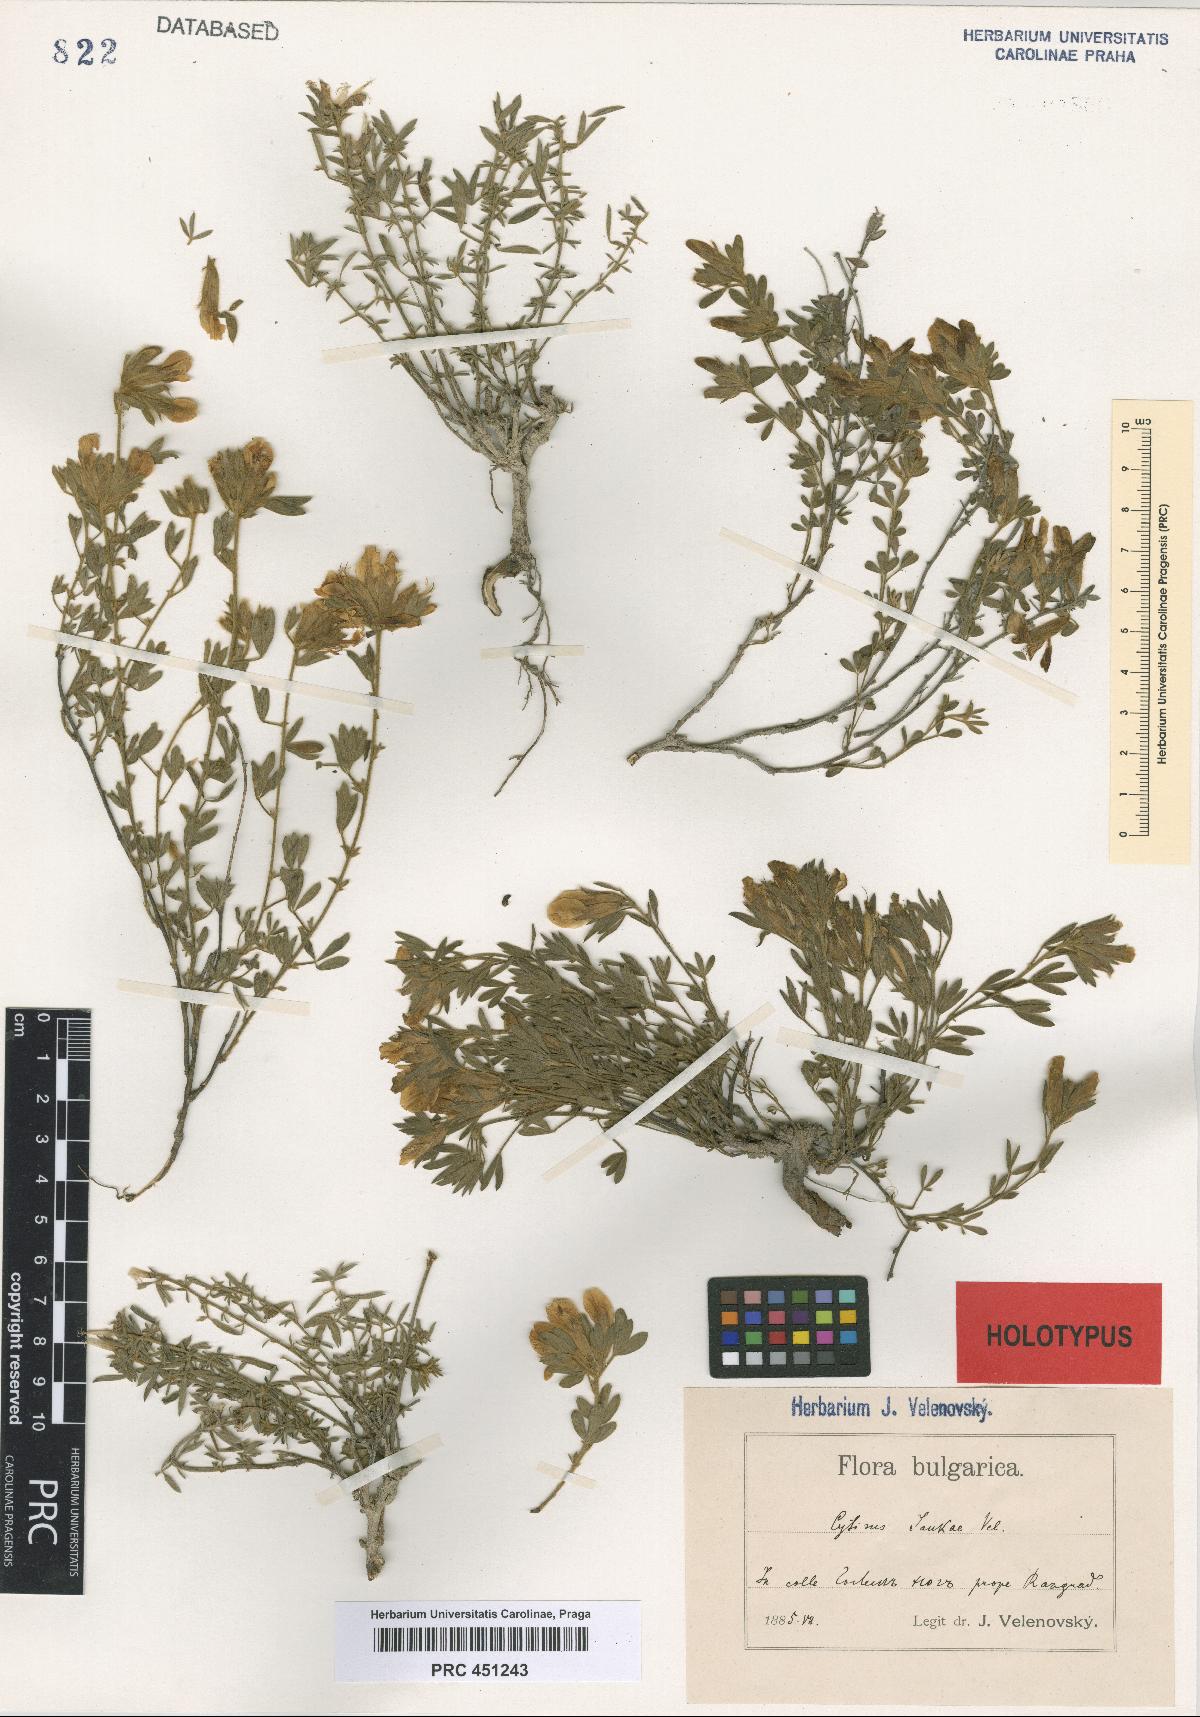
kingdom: Plantae
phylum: Tracheophyta
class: Magnoliopsida
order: Fabales
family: Fabaceae
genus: Chamaecytisus
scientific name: Chamaecytisus jankae
